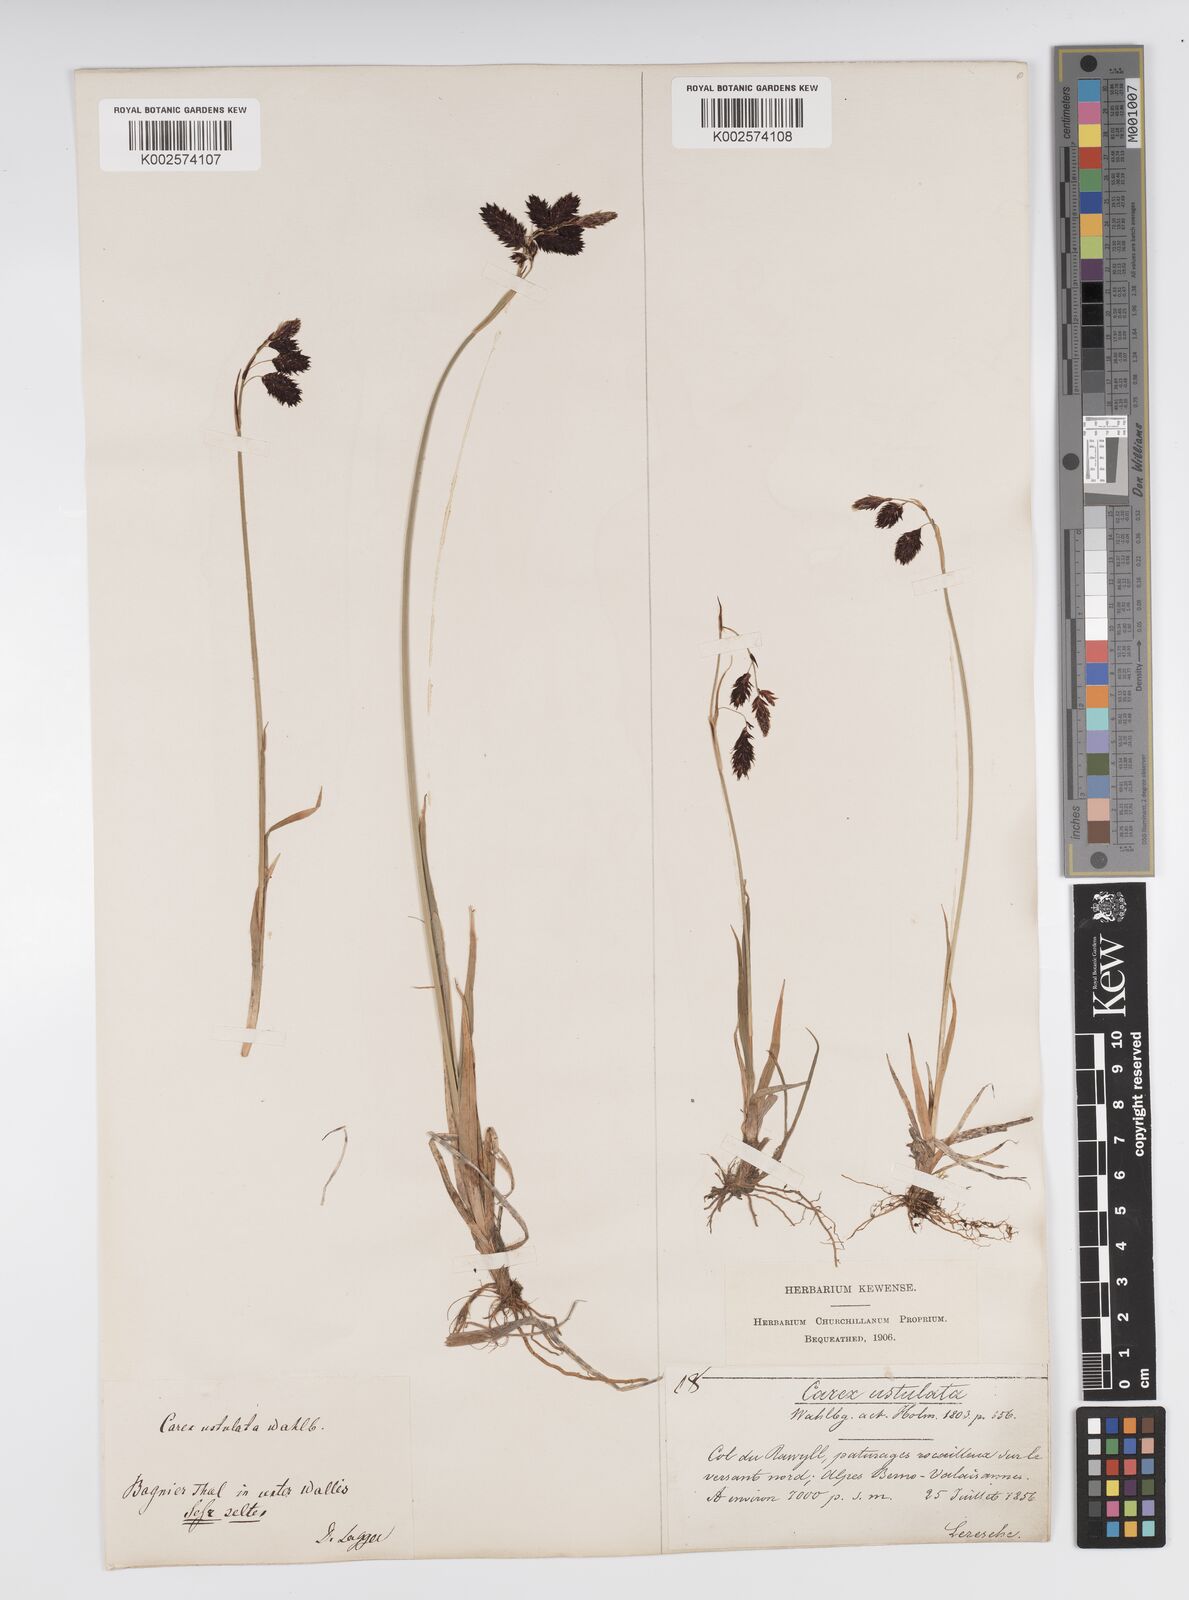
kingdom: Plantae
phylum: Tracheophyta
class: Liliopsida
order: Poales
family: Cyperaceae
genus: Carex
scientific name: Carex atrofusca
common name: Scorched alpine-sedge
